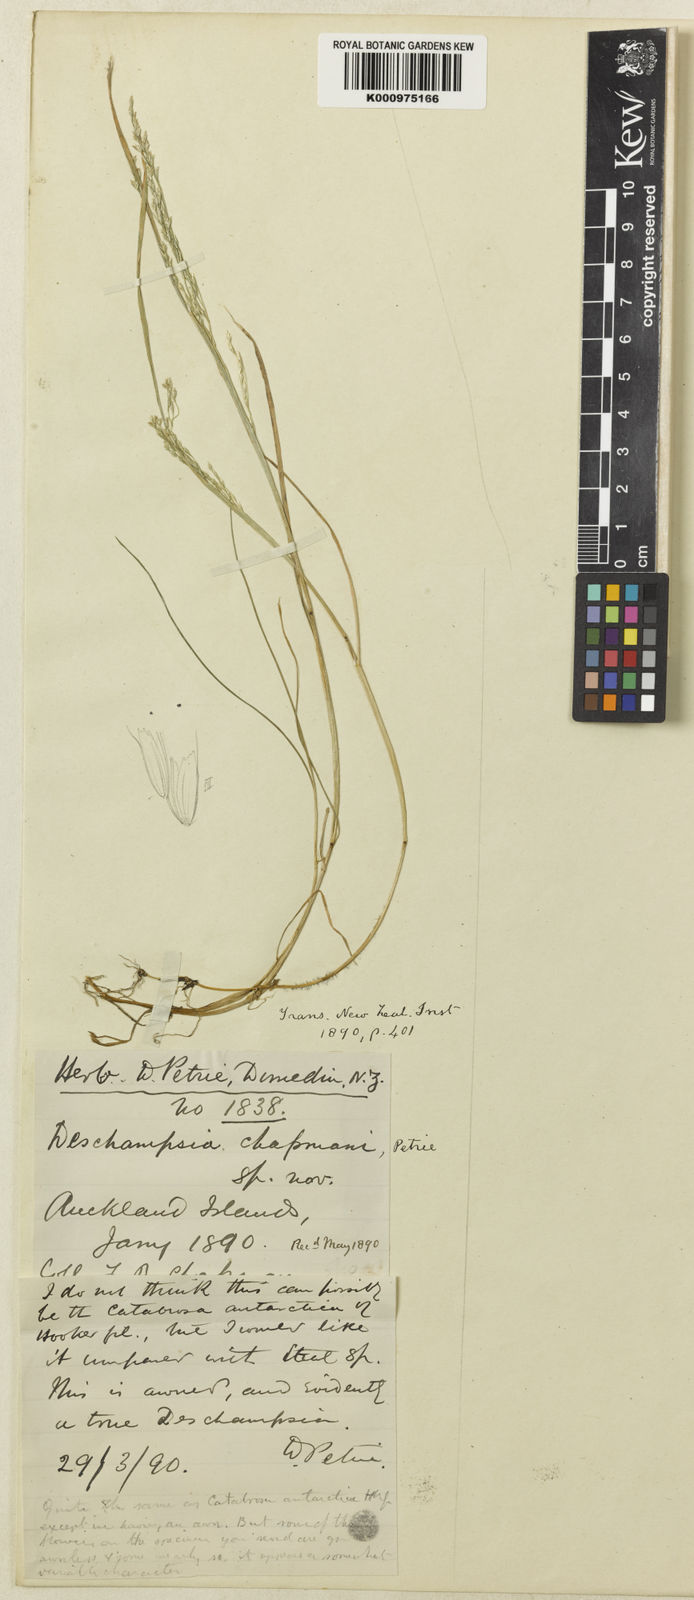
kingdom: Plantae
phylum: Tracheophyta
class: Liliopsida
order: Poales
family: Poaceae
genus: Deschampsia
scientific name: Deschampsia chapmanii
